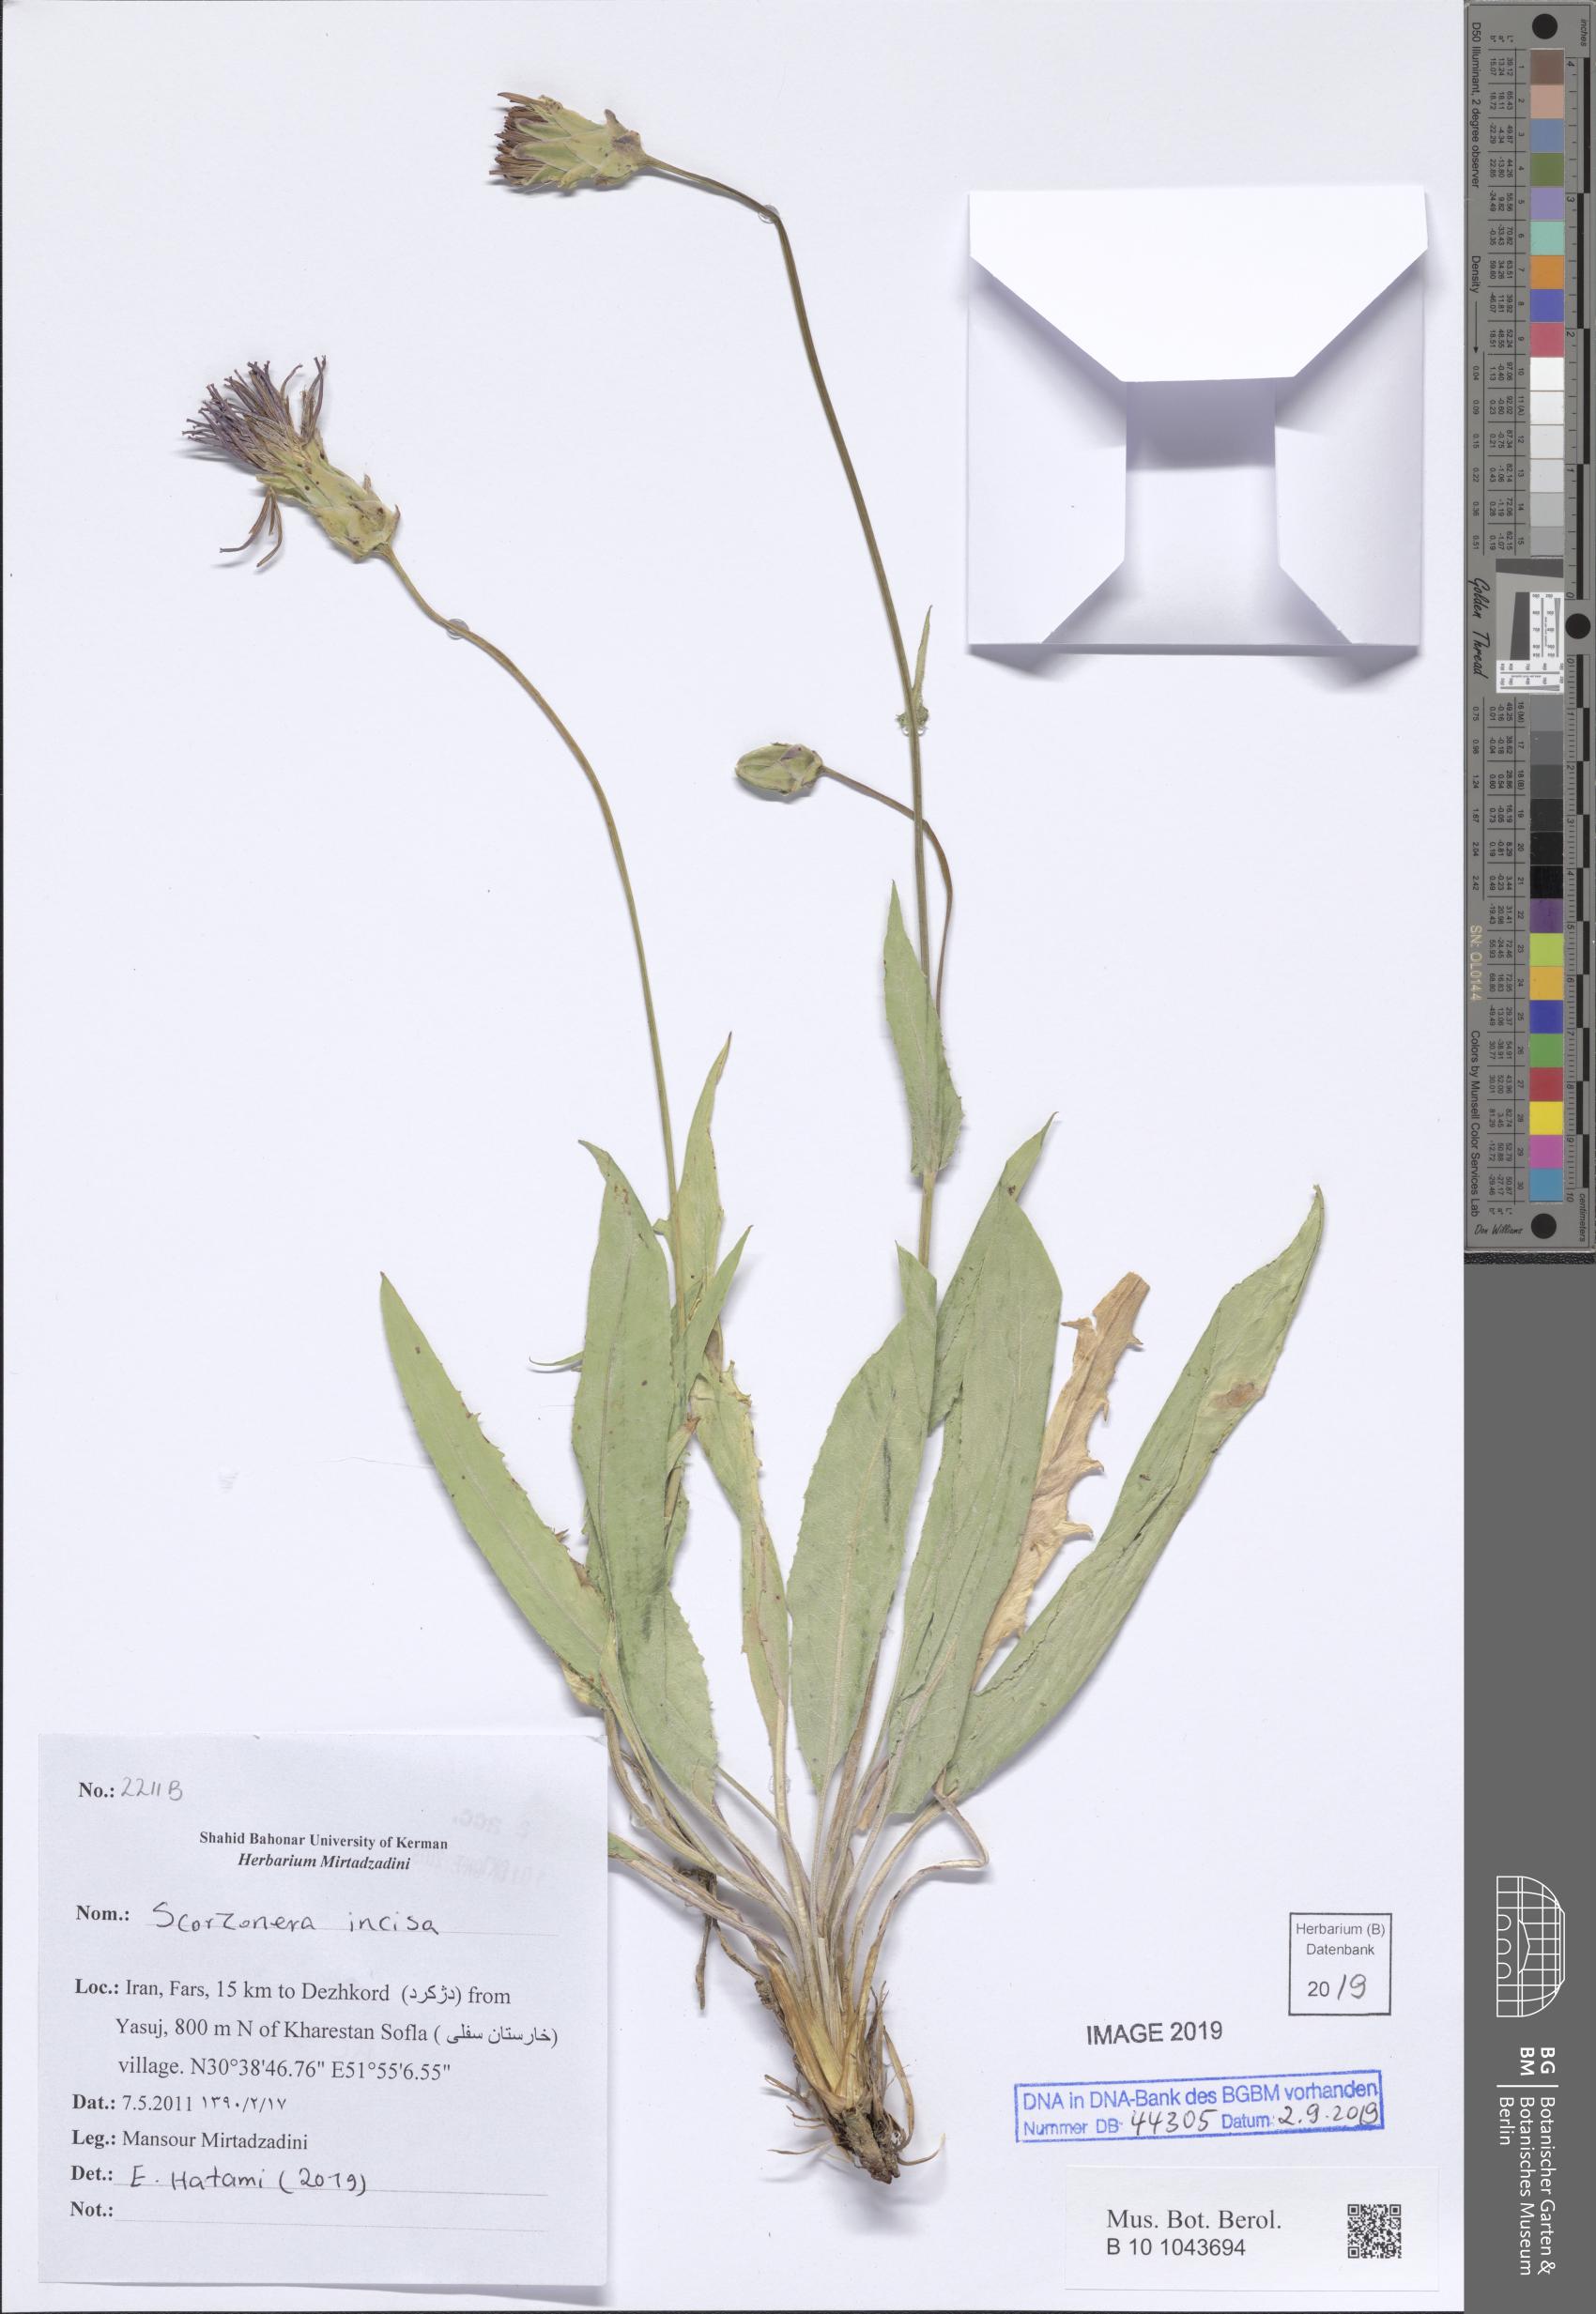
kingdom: Plantae
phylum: Tracheophyta
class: Magnoliopsida
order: Asterales
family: Asteraceae
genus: Aslia
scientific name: Aslia incisa
